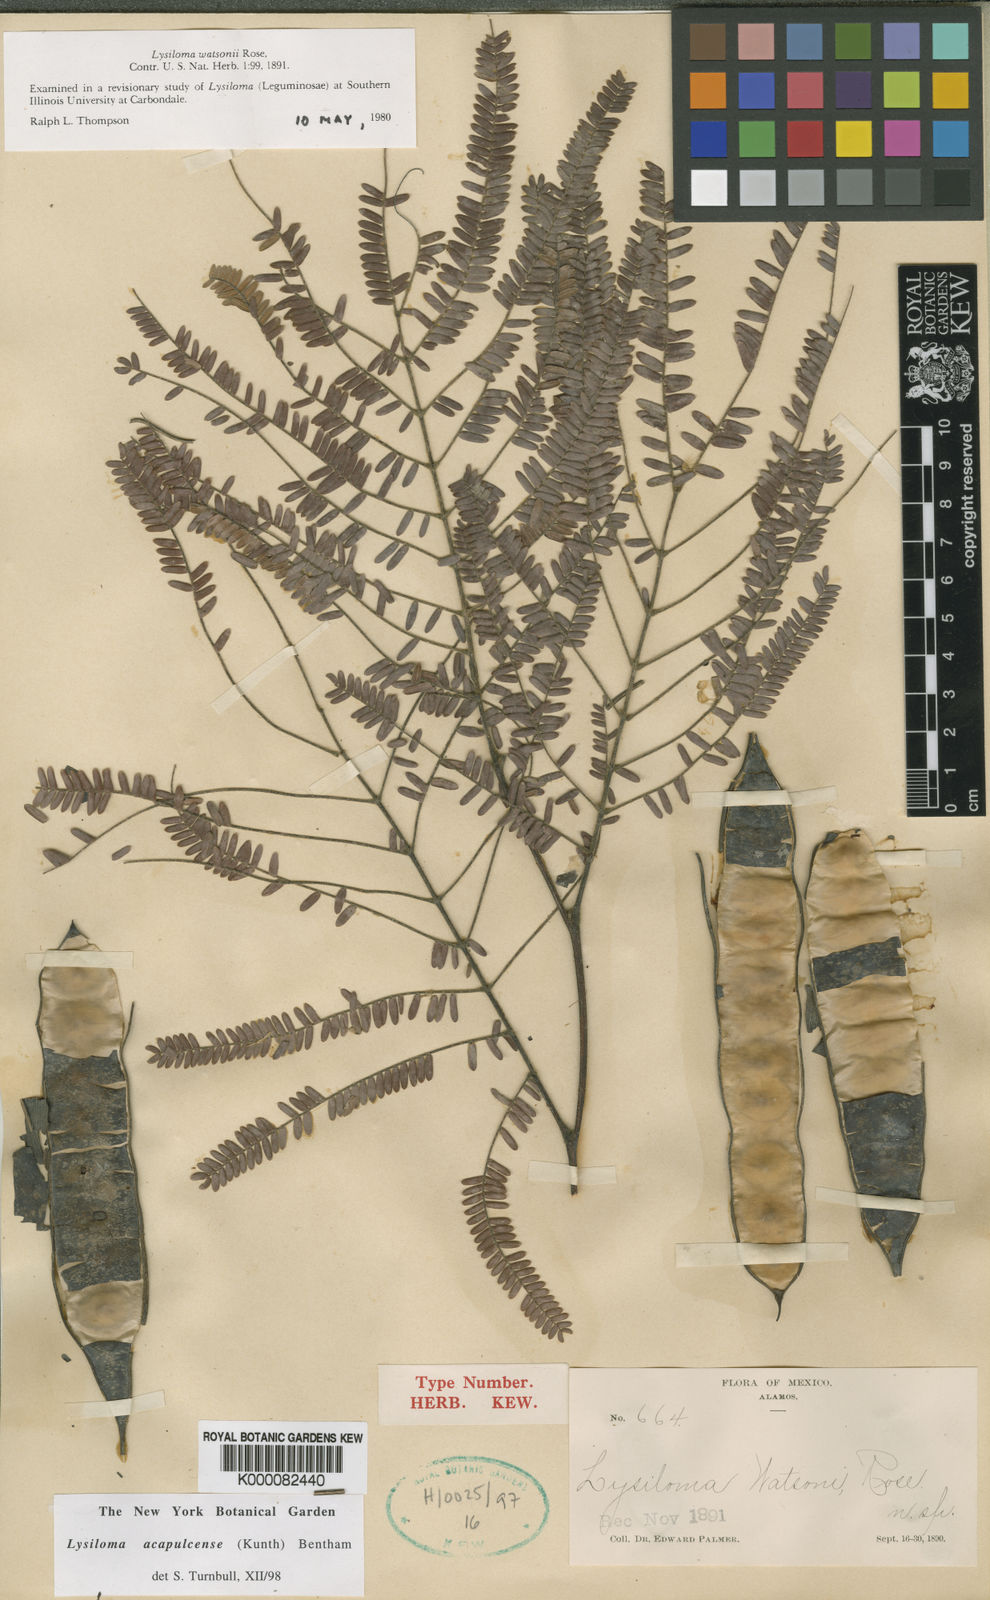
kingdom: Plantae
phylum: Tracheophyta
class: Magnoliopsida
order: Fabales
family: Fabaceae
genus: Lysiloma
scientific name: Lysiloma watsonii
